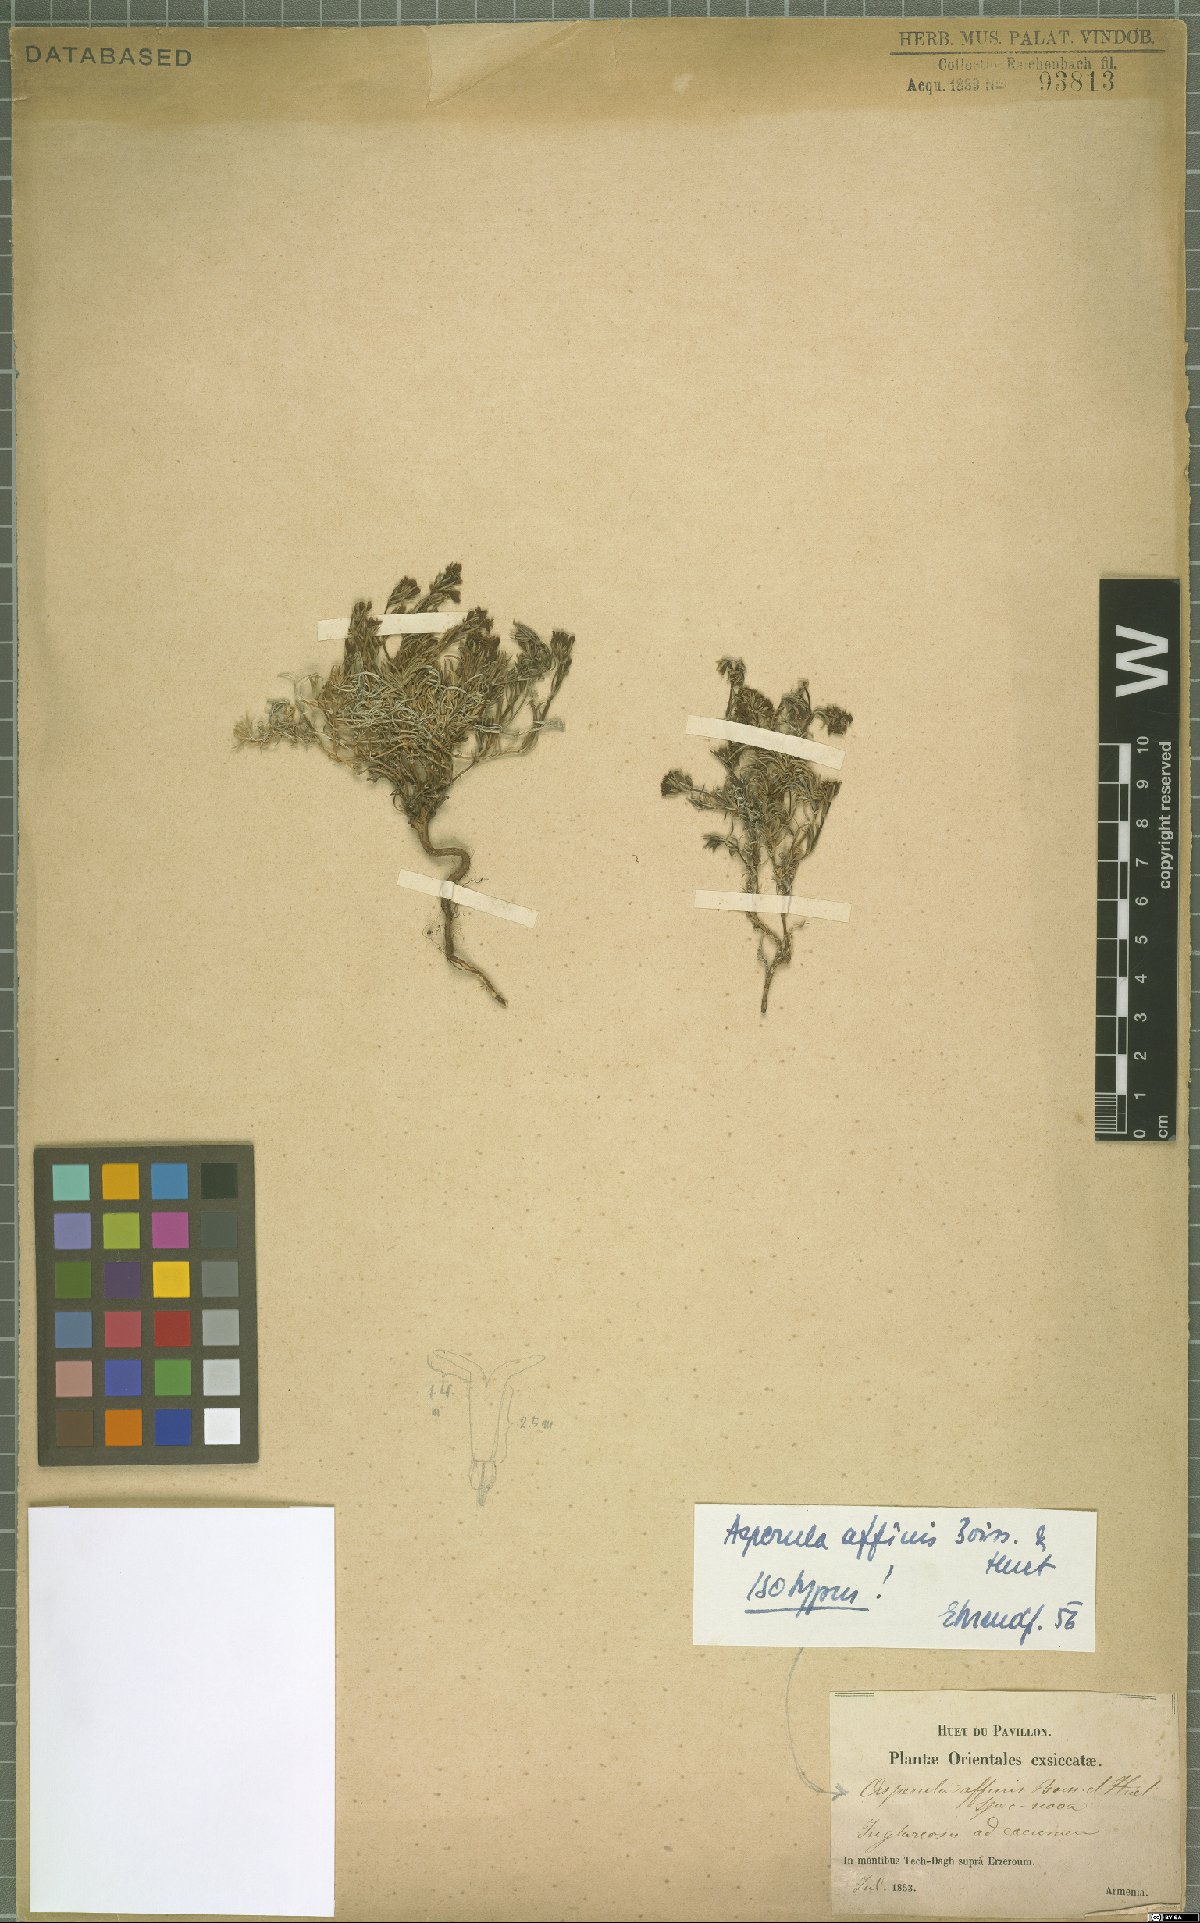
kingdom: Plantae
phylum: Tracheophyta
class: Magnoliopsida
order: Gentianales
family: Rubiaceae
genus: Cynanchica
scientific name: Cynanchica affinis
